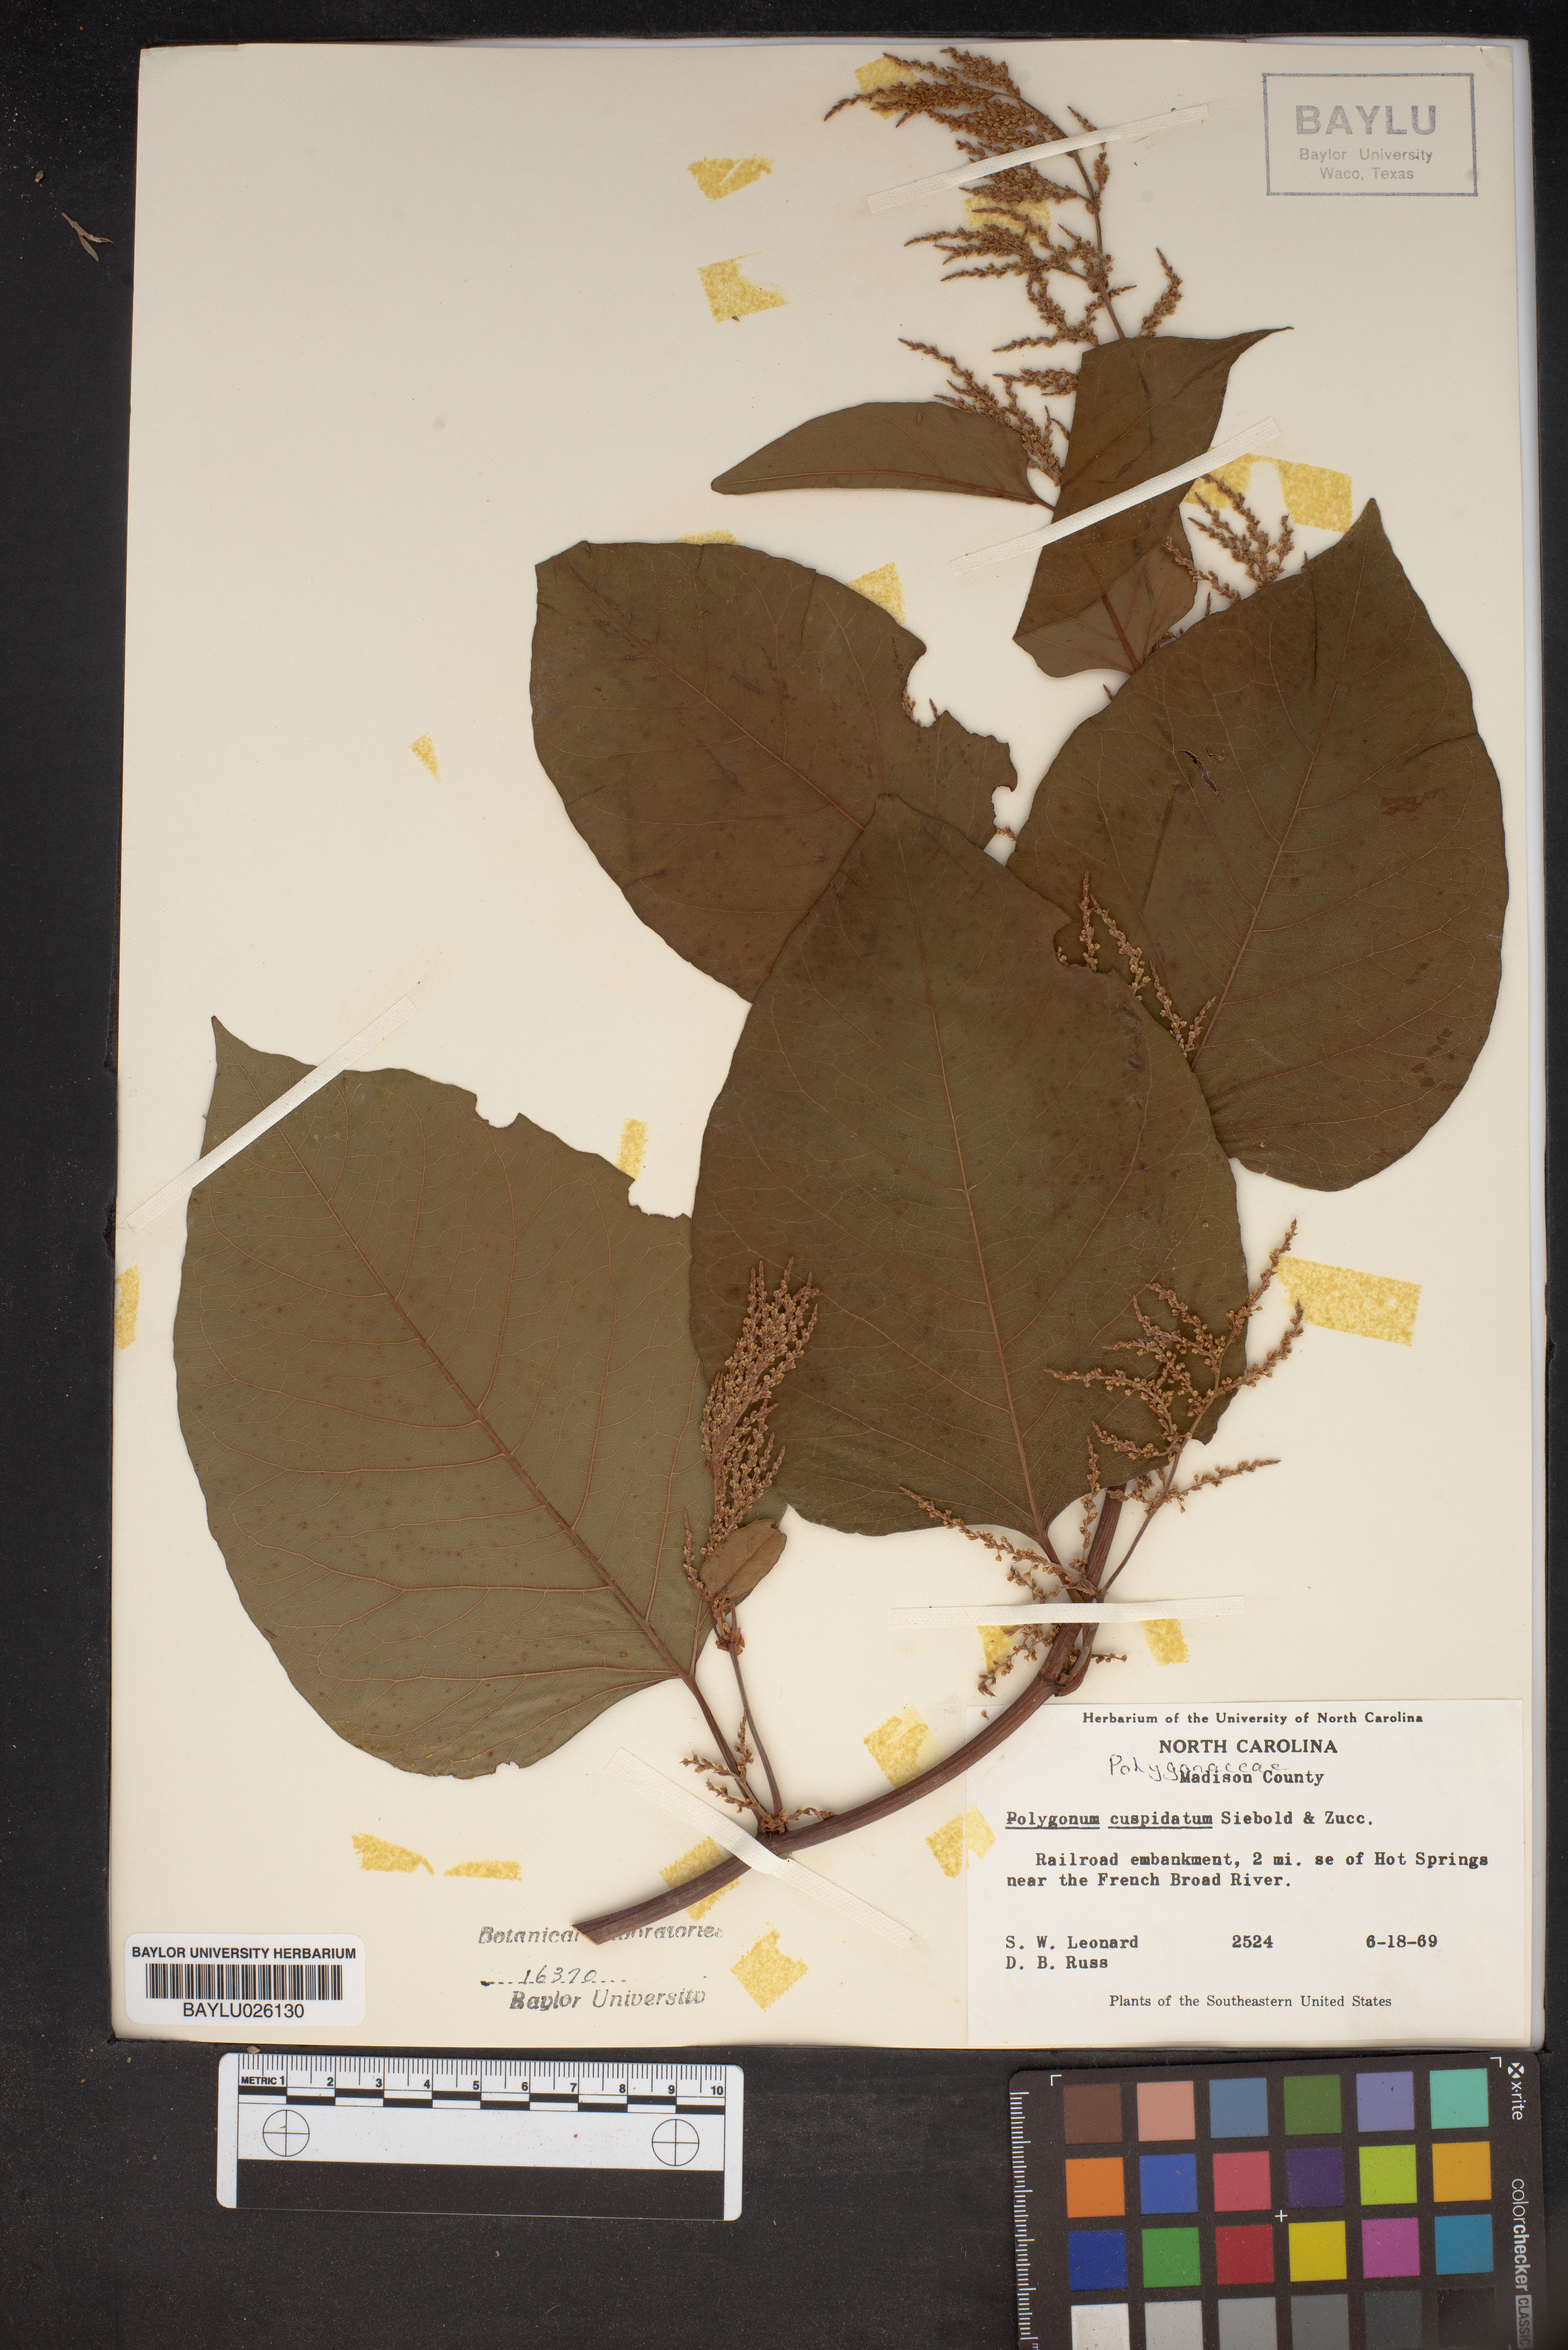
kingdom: Plantae
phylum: Tracheophyta
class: Magnoliopsida
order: Caryophyllales
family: Polygonaceae
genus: Reynoutria
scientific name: Reynoutria japonica
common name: Japanese knotweed
